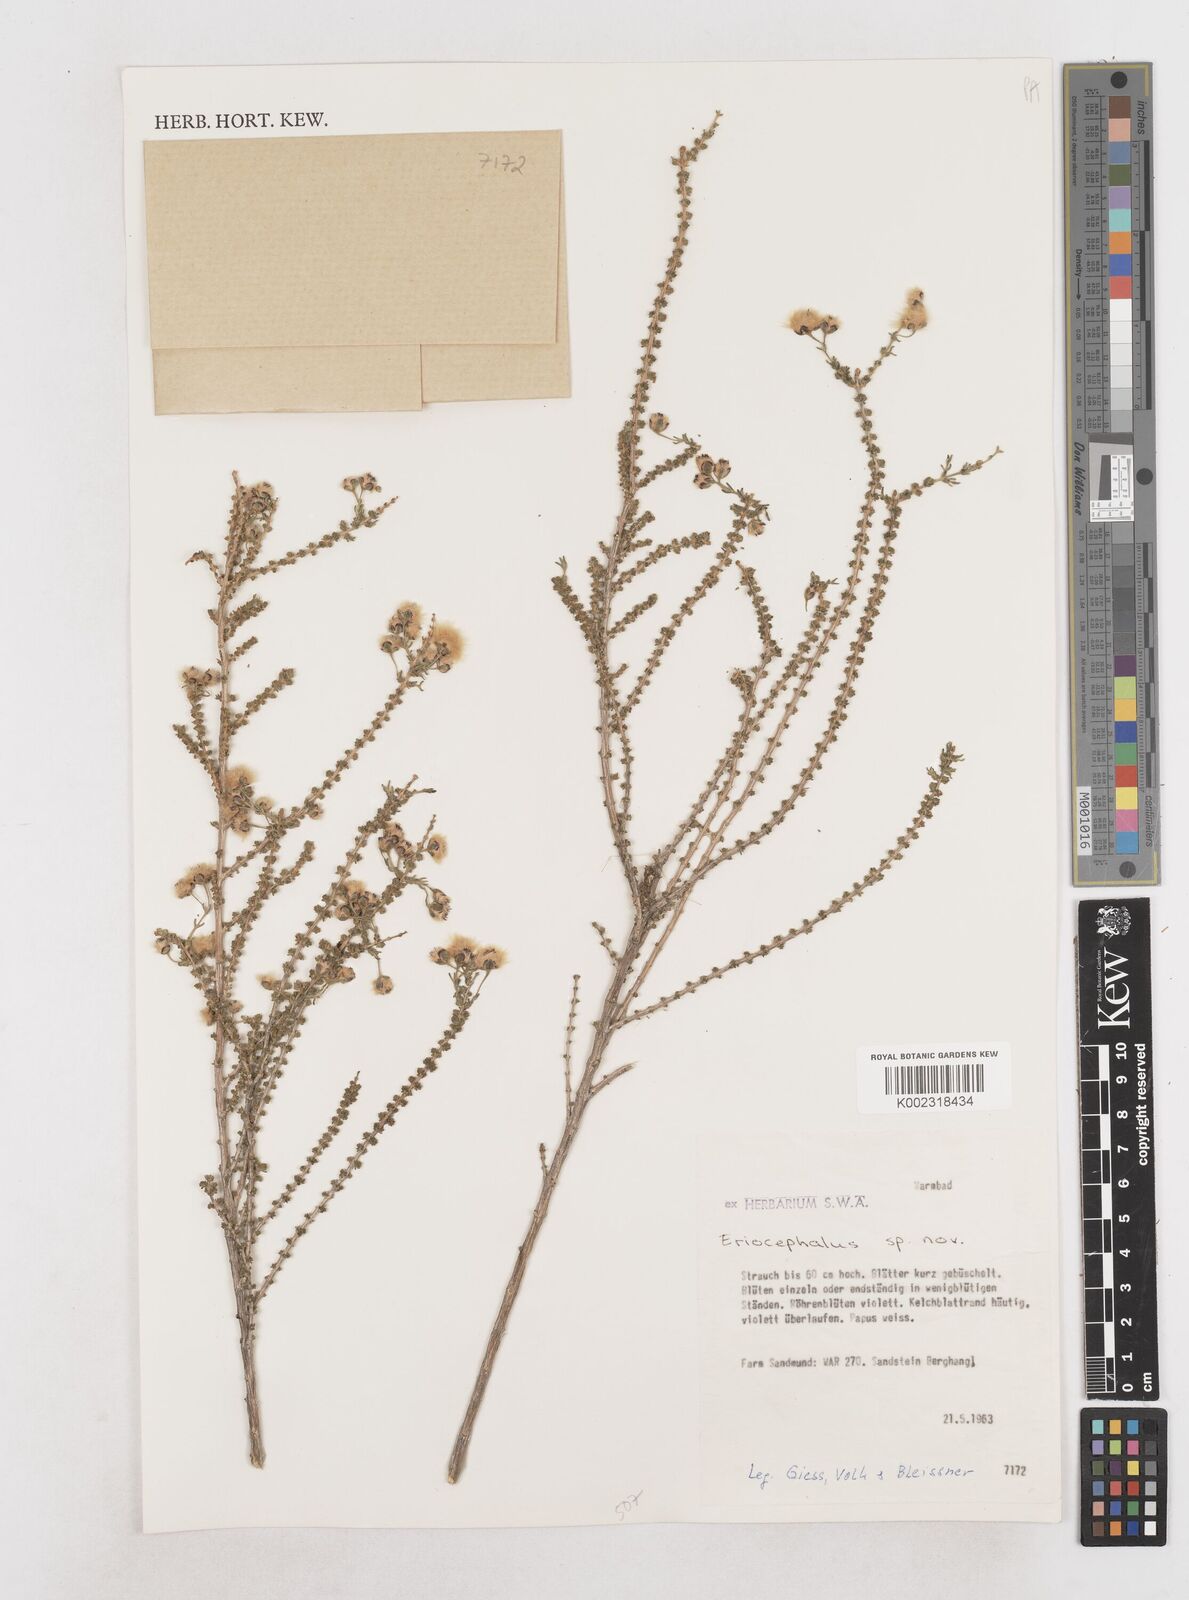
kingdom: Plantae
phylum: Tracheophyta
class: Magnoliopsida
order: Asterales
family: Asteraceae
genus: Eriocephalus
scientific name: Eriocephalus
